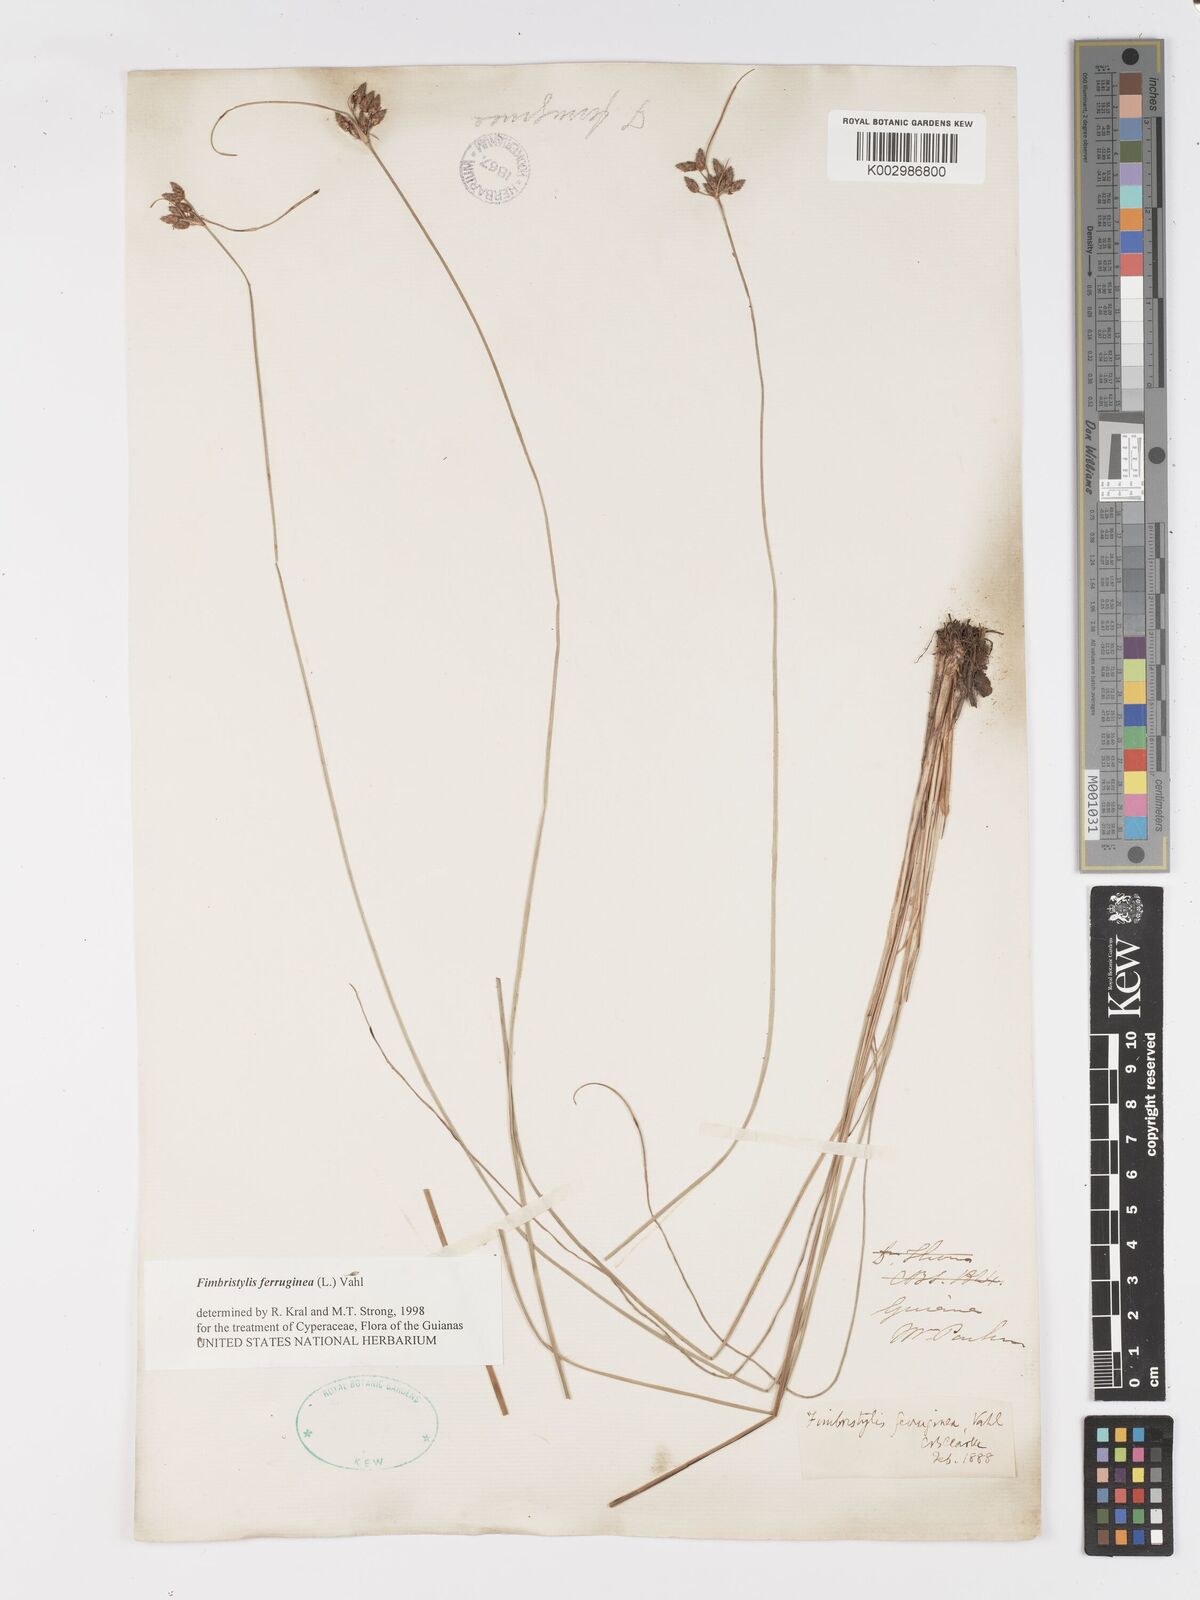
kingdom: Plantae
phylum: Tracheophyta
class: Liliopsida
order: Poales
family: Cyperaceae
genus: Fimbristylis
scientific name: Fimbristylis ferruginea
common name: West indian fimbry
